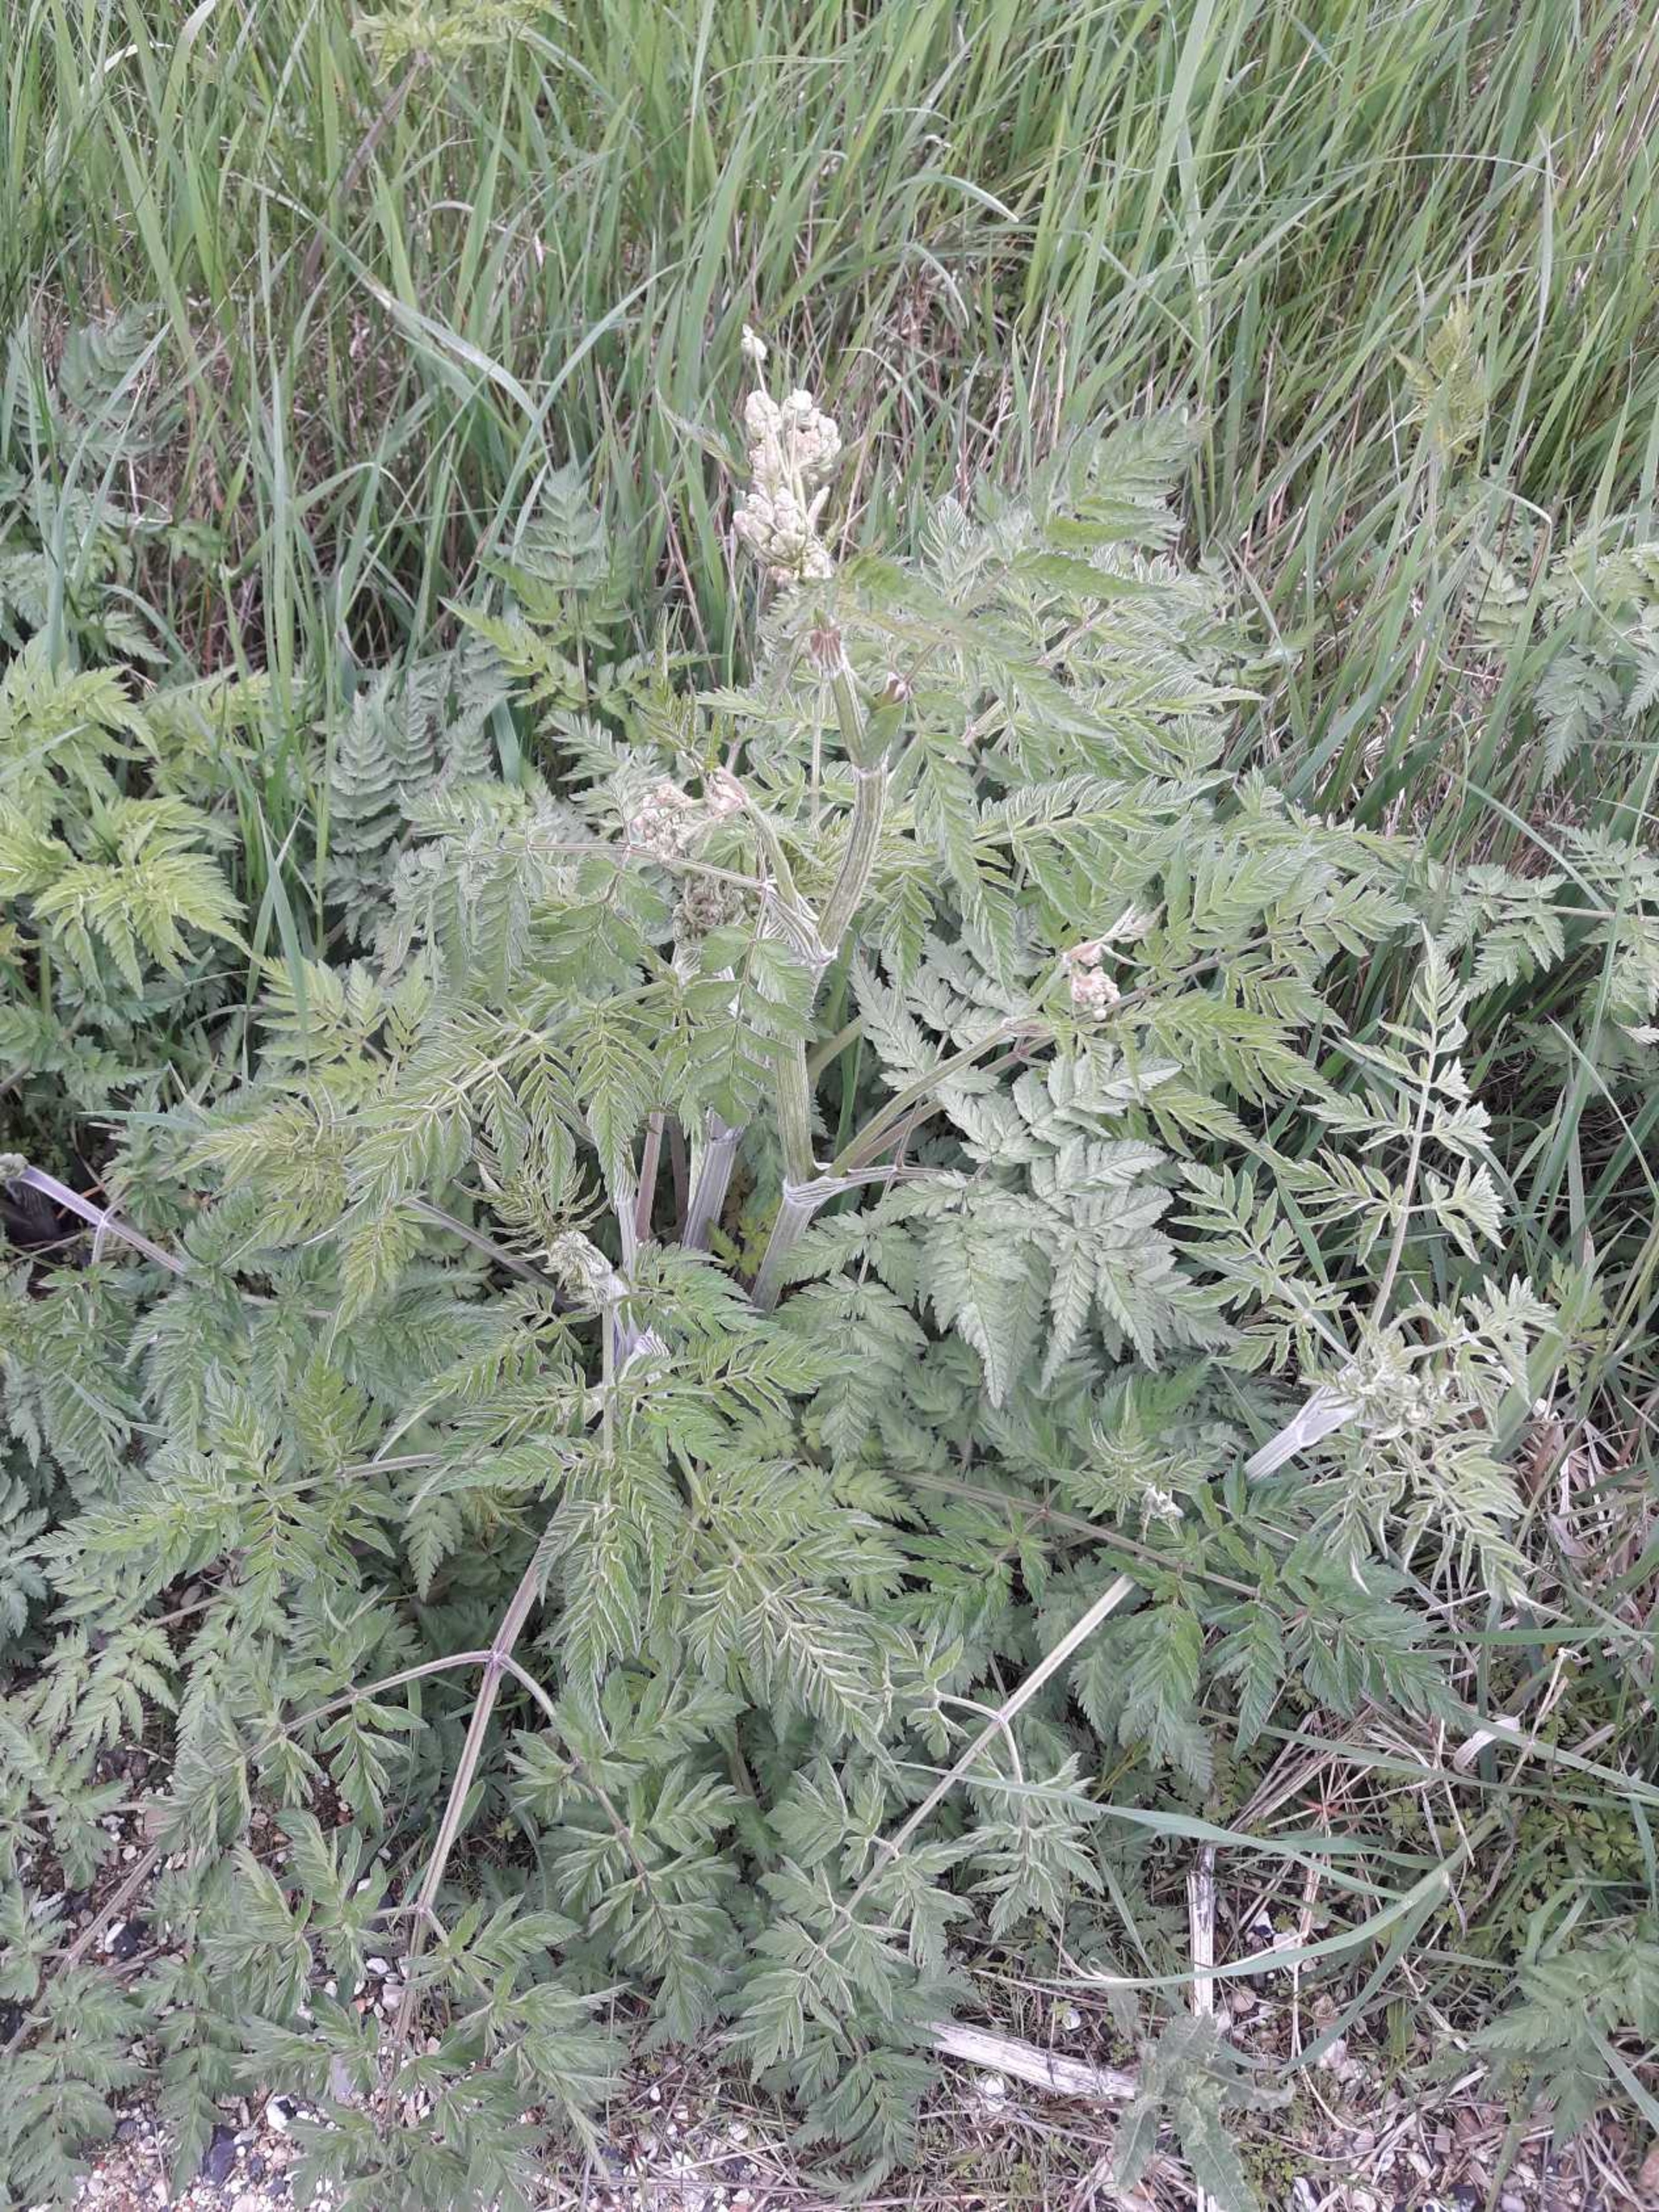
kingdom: Plantae
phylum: Tracheophyta
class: Magnoliopsida
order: Apiales
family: Apiaceae
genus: Anthriscus
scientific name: Anthriscus sylvestris
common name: Vild kørvel
